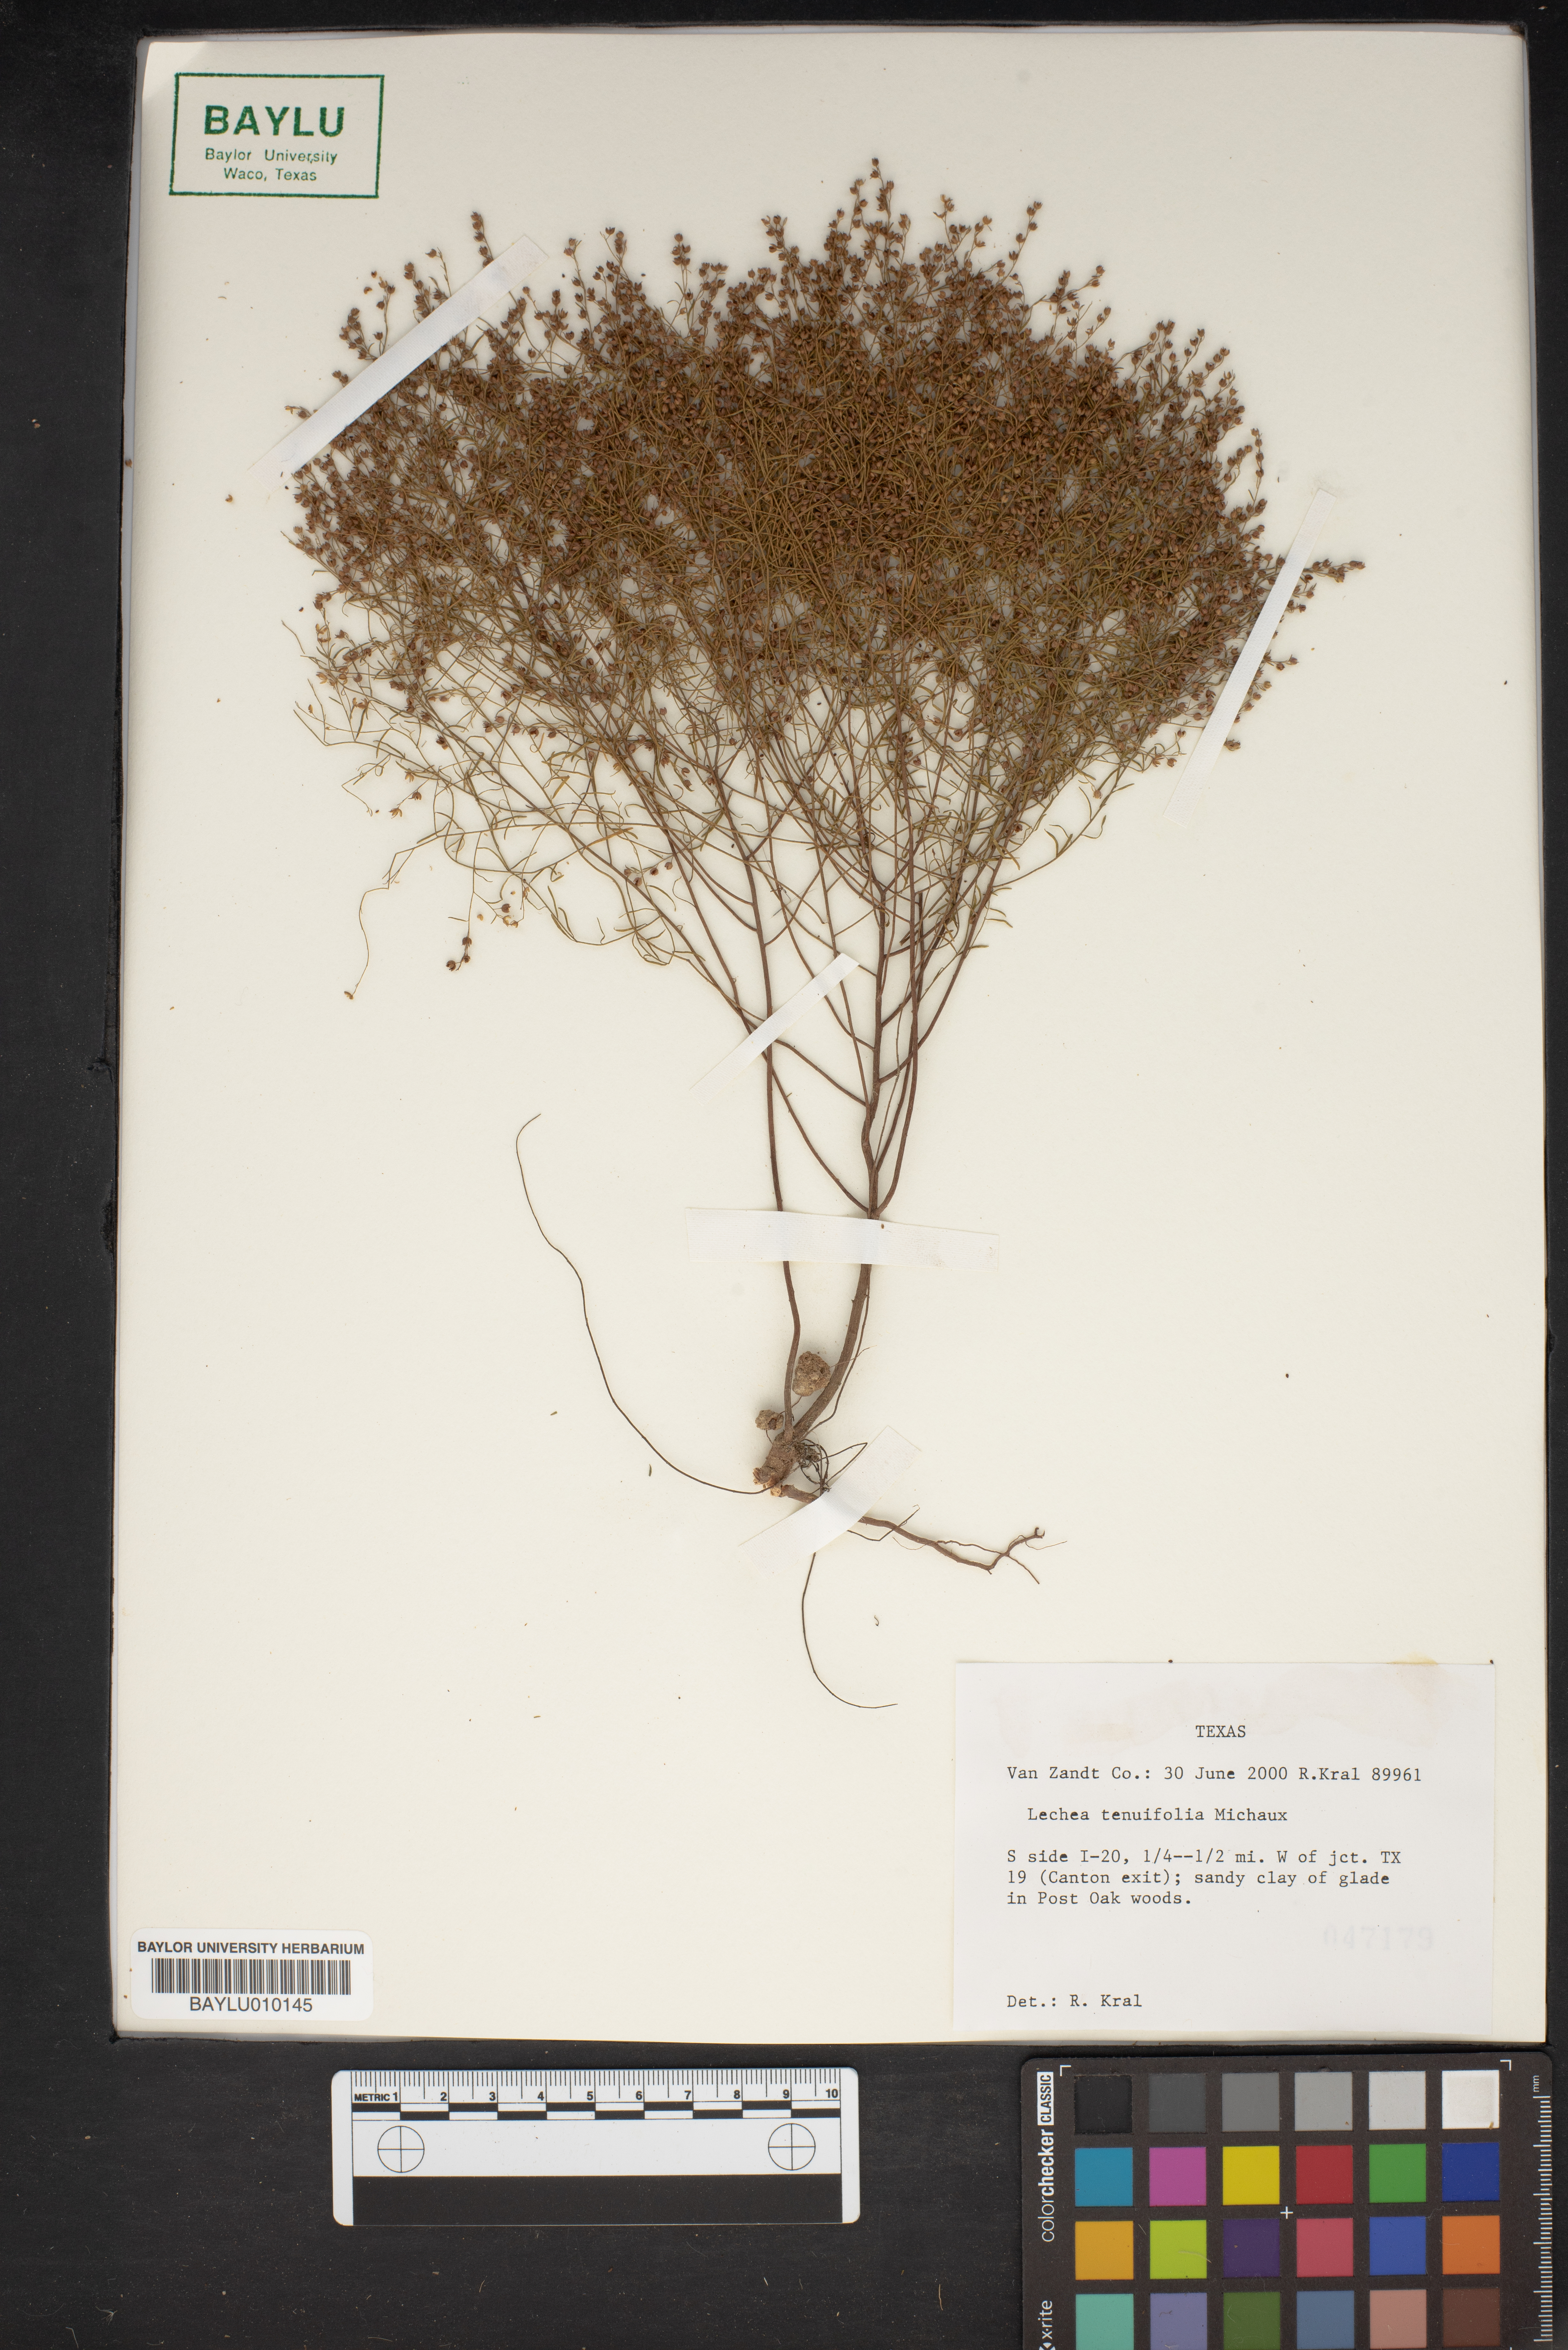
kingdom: Plantae
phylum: Tracheophyta
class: Magnoliopsida
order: Malvales
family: Cistaceae
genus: Lechea
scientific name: Lechea tenuifolia
